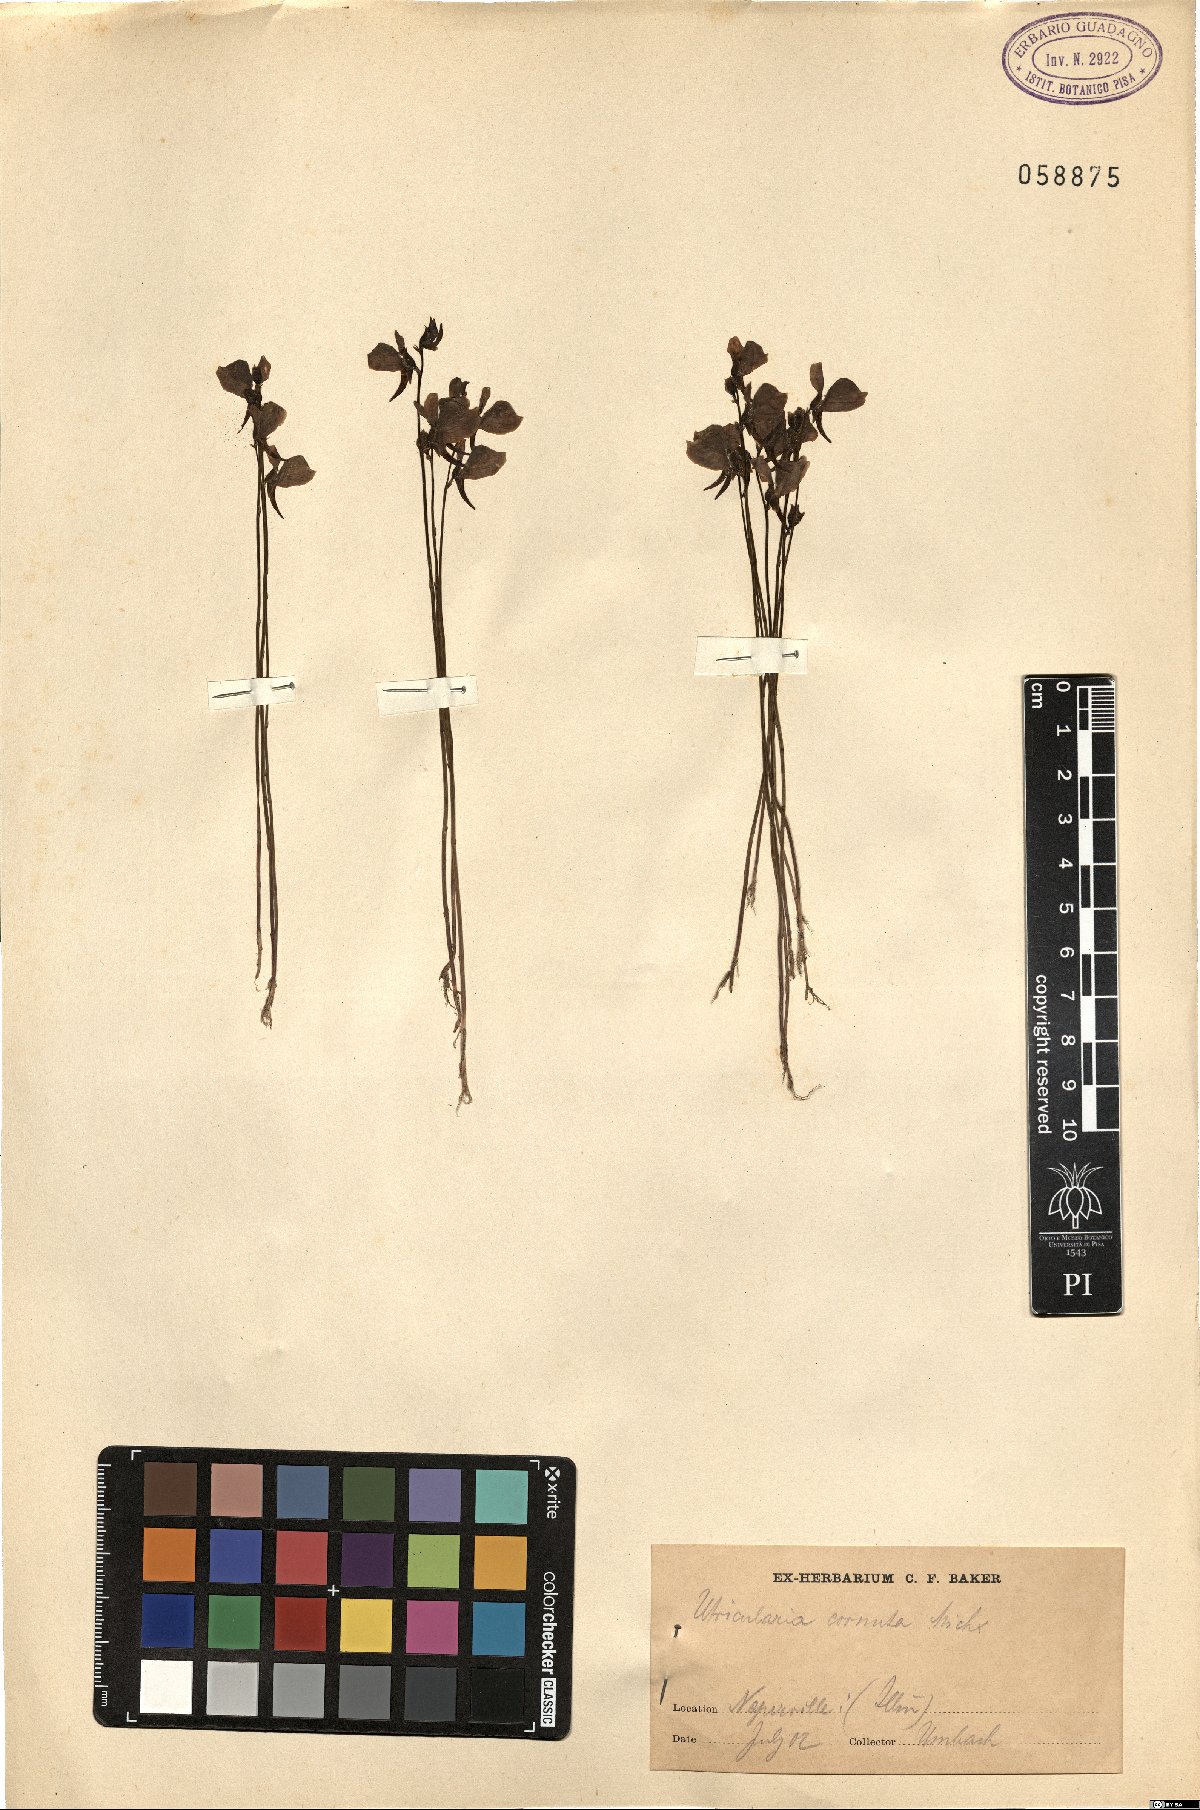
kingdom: Plantae
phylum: Tracheophyta
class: Magnoliopsida
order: Lamiales
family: Lentibulariaceae
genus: Utricularia
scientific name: Utricularia cornuta
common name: Horned bladderwort
